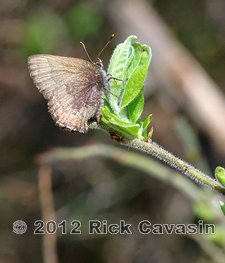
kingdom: Animalia
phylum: Arthropoda
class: Insecta
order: Lepidoptera
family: Lycaenidae
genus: Incisalia
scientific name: Incisalia irioides
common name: Brown Elfin
